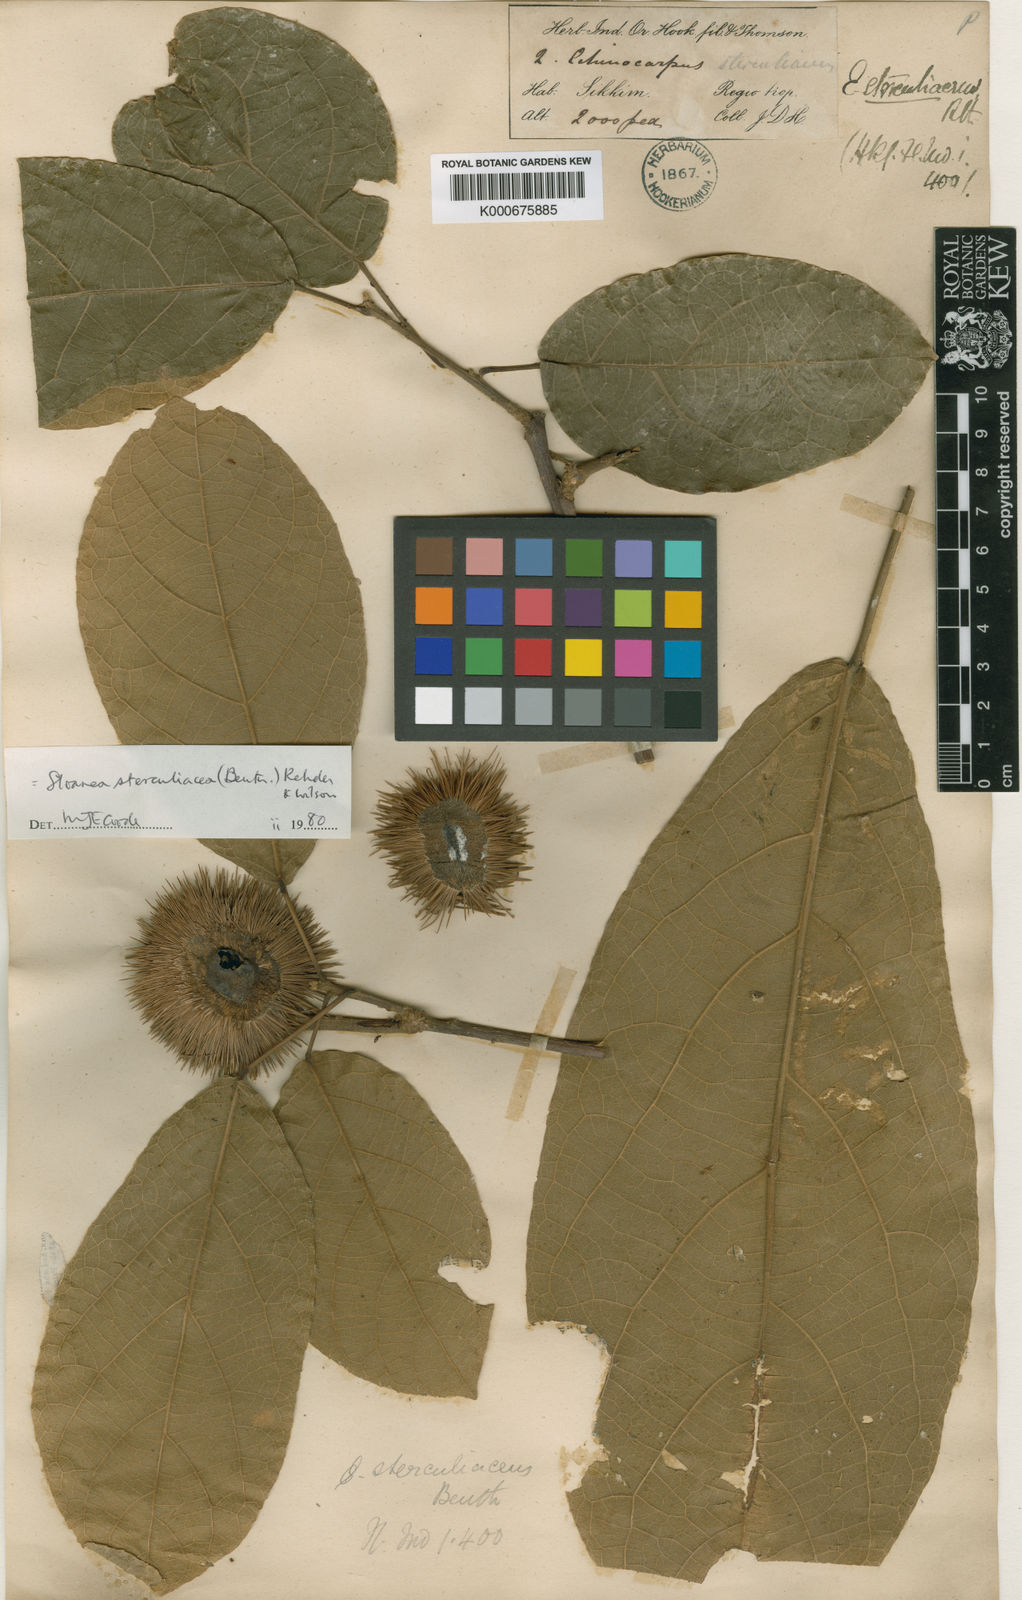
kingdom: Plantae
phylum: Tracheophyta
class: Magnoliopsida
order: Oxalidales
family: Elaeocarpaceae
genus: Sloanea
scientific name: Sloanea sterculiacea
